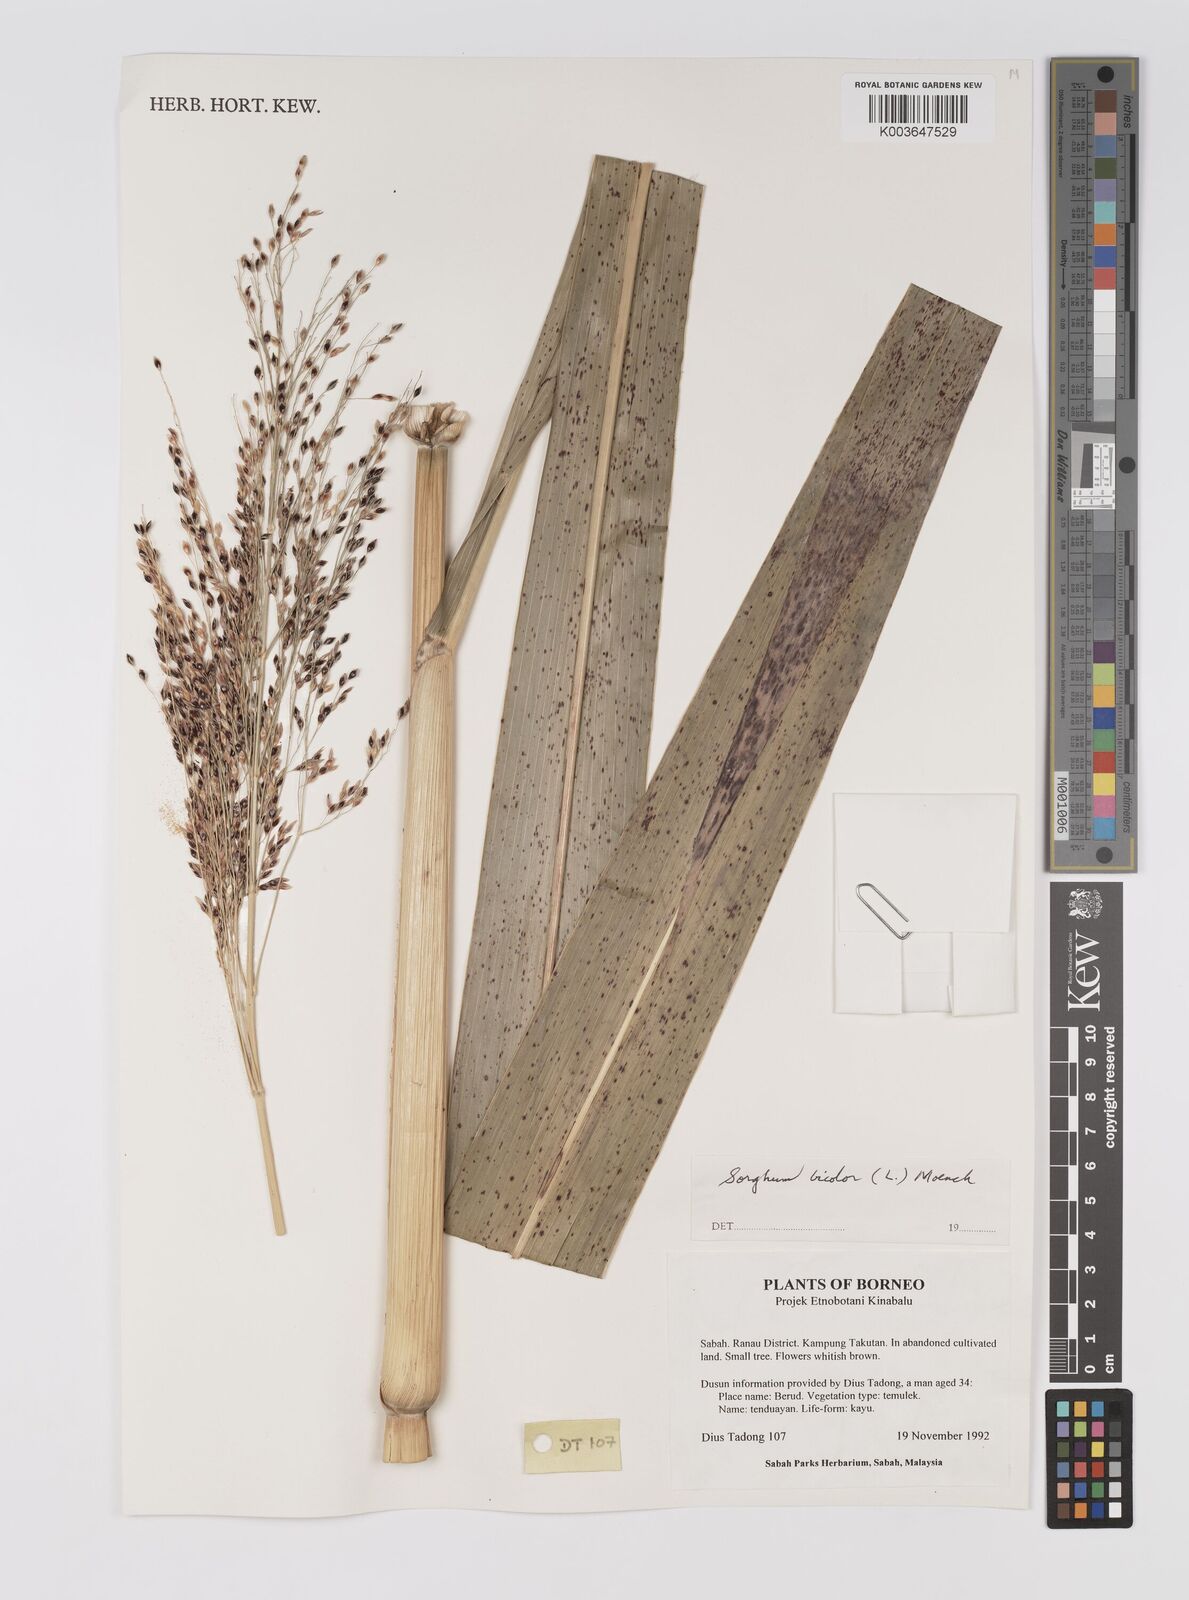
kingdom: Plantae
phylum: Tracheophyta
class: Liliopsida
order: Poales
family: Poaceae
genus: Hyparrhenia
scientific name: Hyparrhenia dichroa
